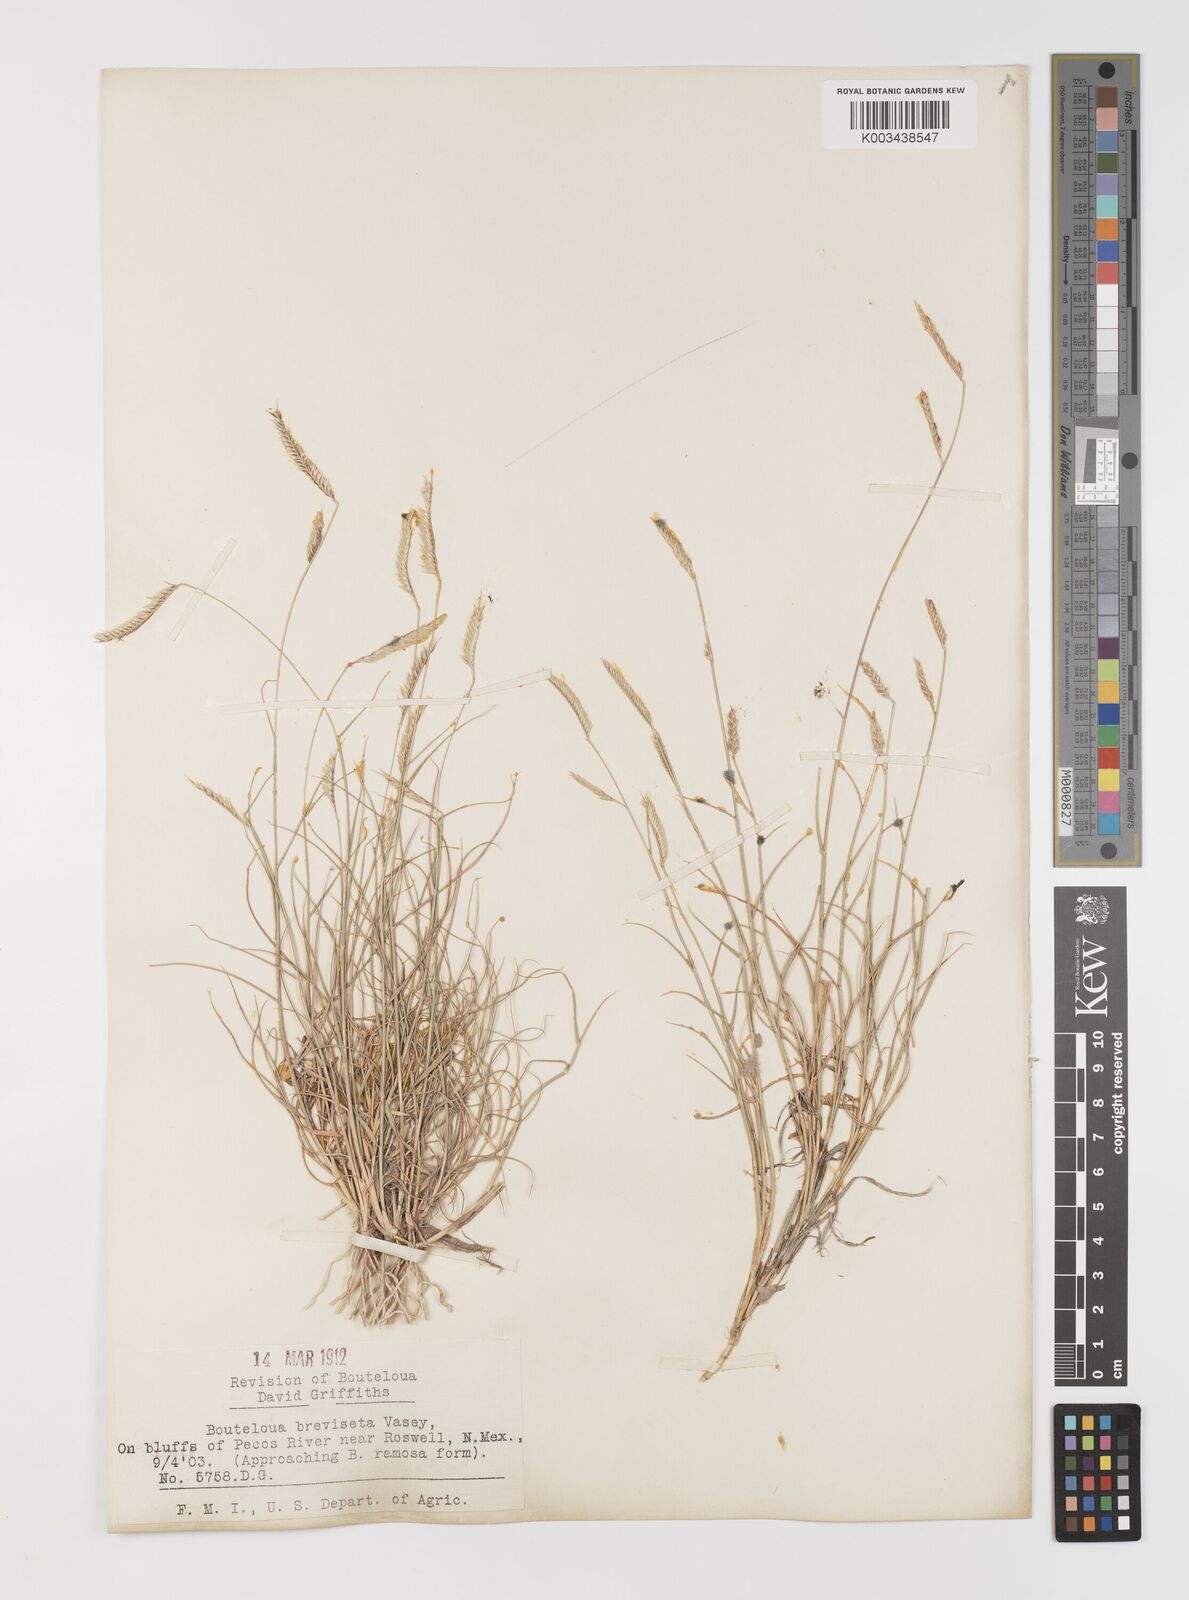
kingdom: Plantae
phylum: Tracheophyta
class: Liliopsida
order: Poales
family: Poaceae
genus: Bouteloua
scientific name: Bouteloua breviseta
